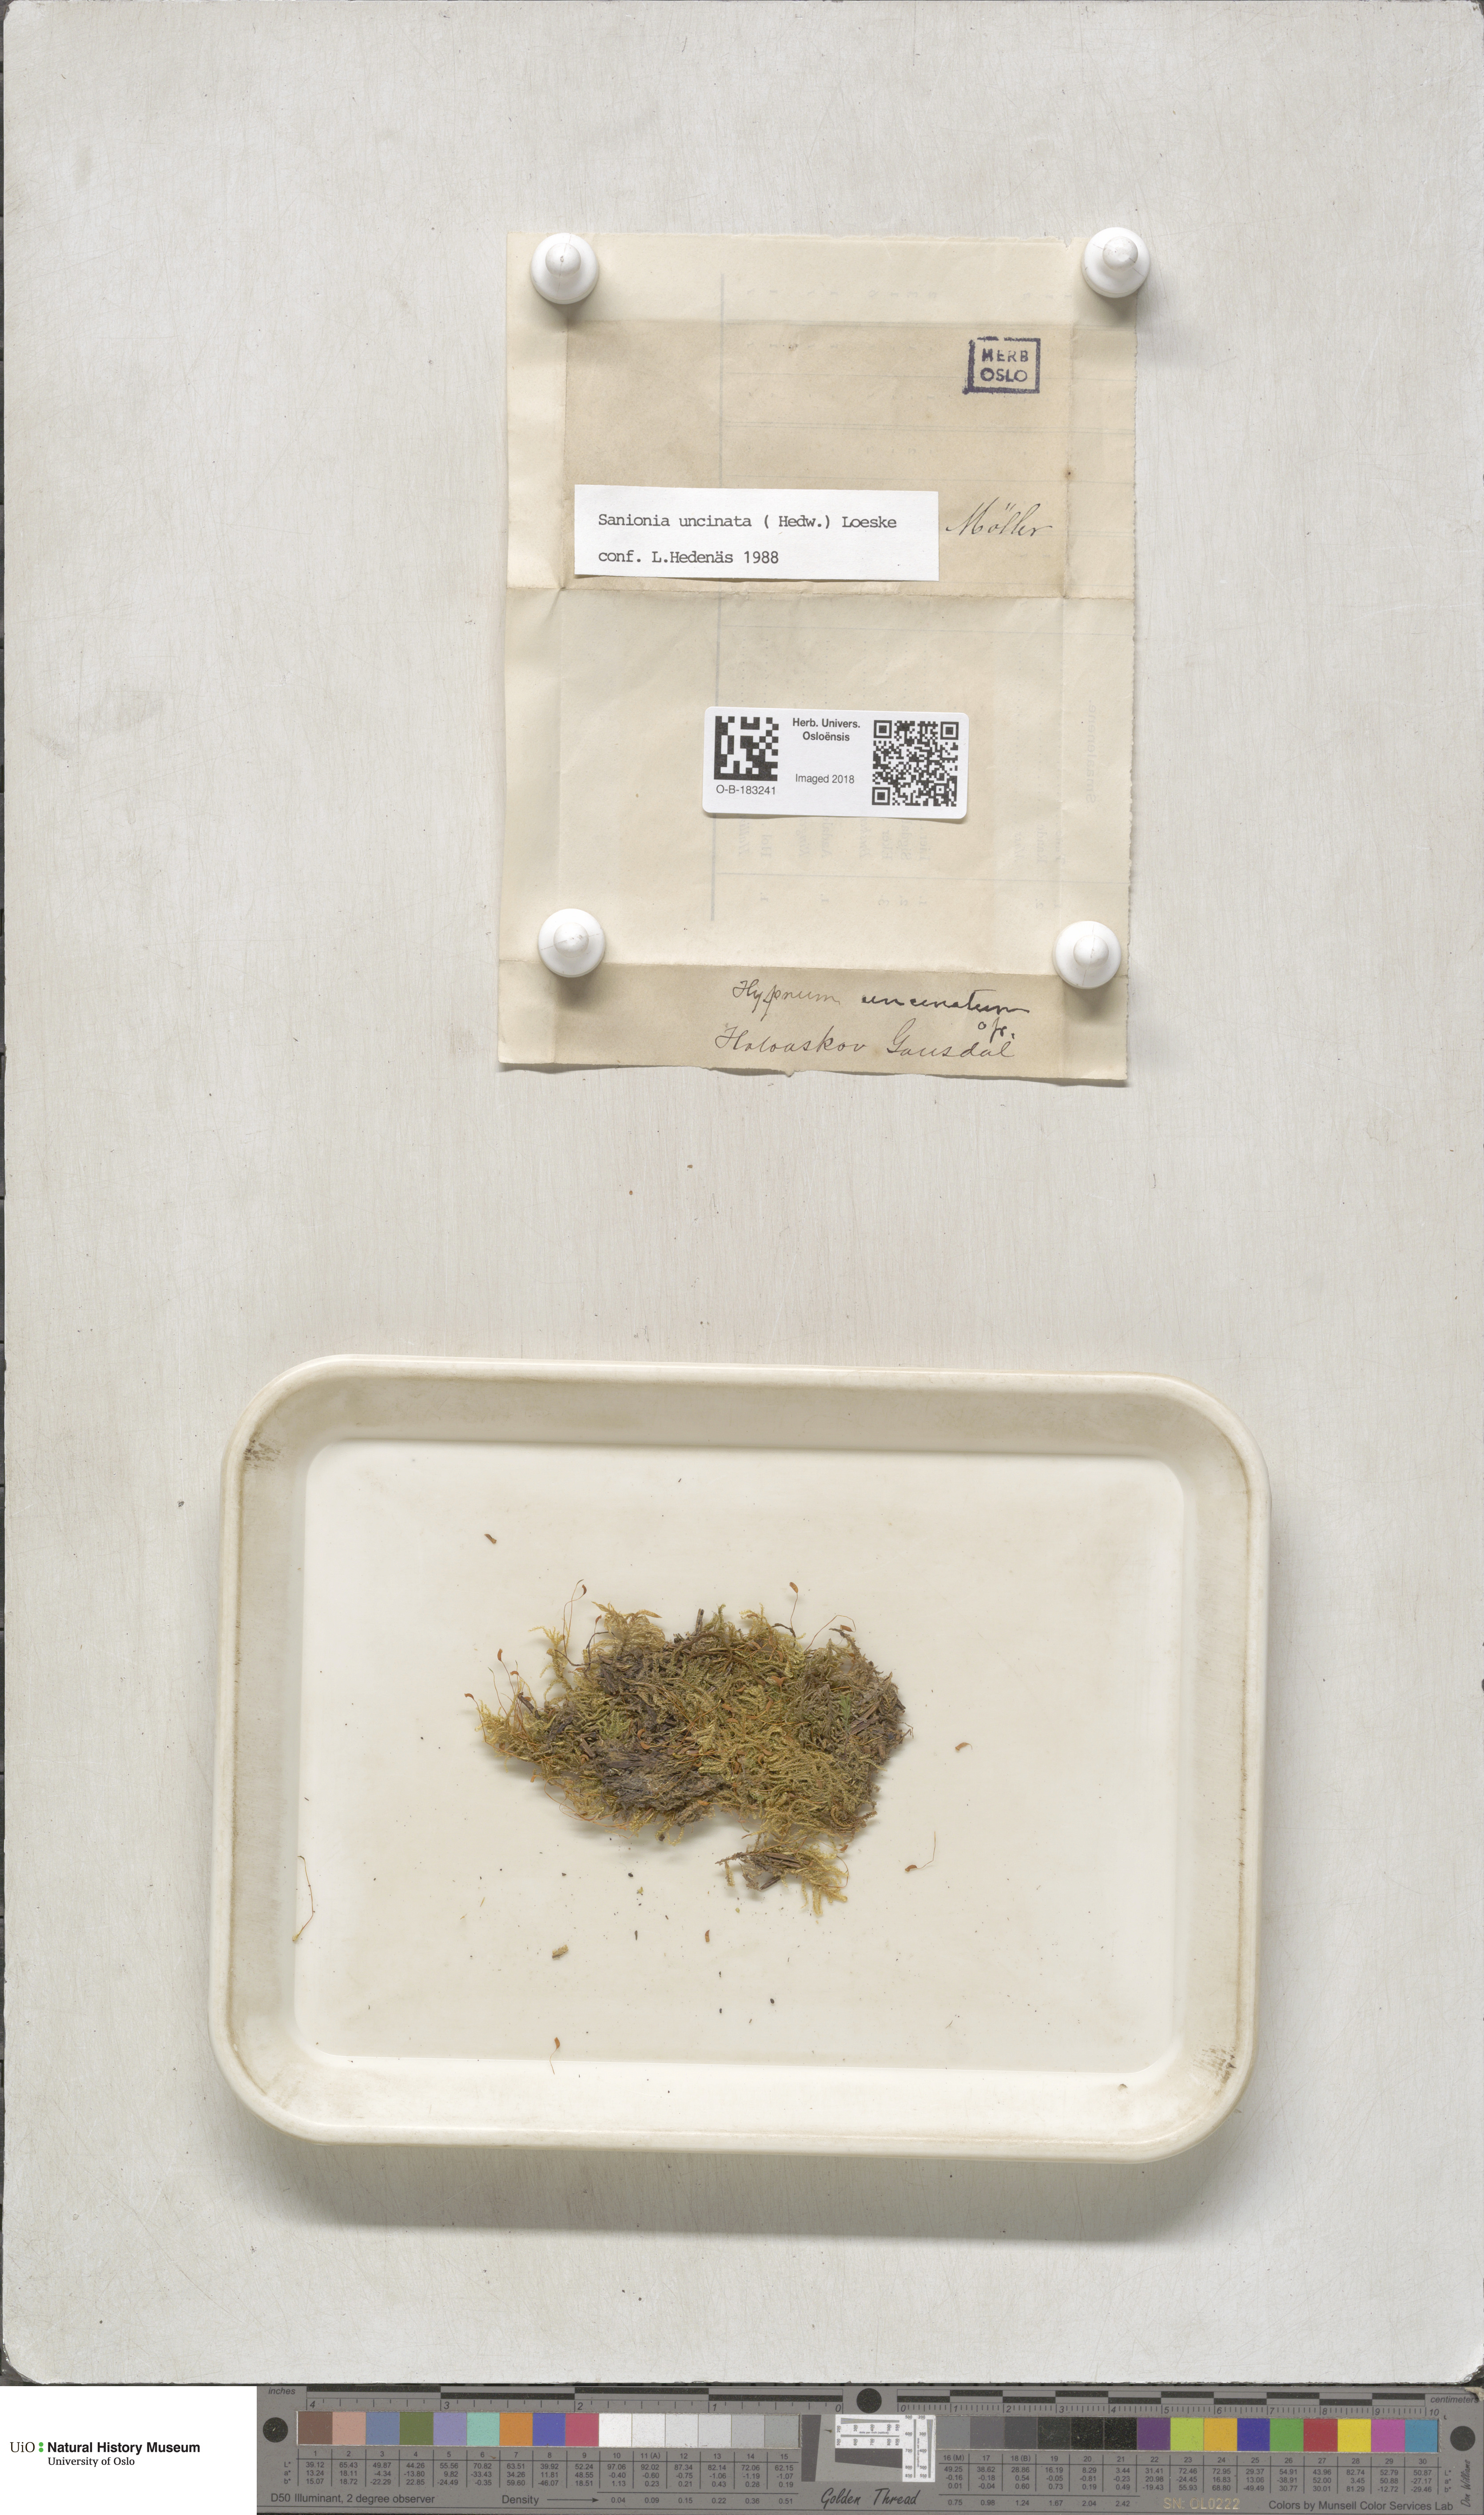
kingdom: Plantae
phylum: Bryophyta
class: Bryopsida
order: Hypnales
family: Scorpidiaceae
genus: Sanionia
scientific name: Sanionia uncinata
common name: Sickle moss
